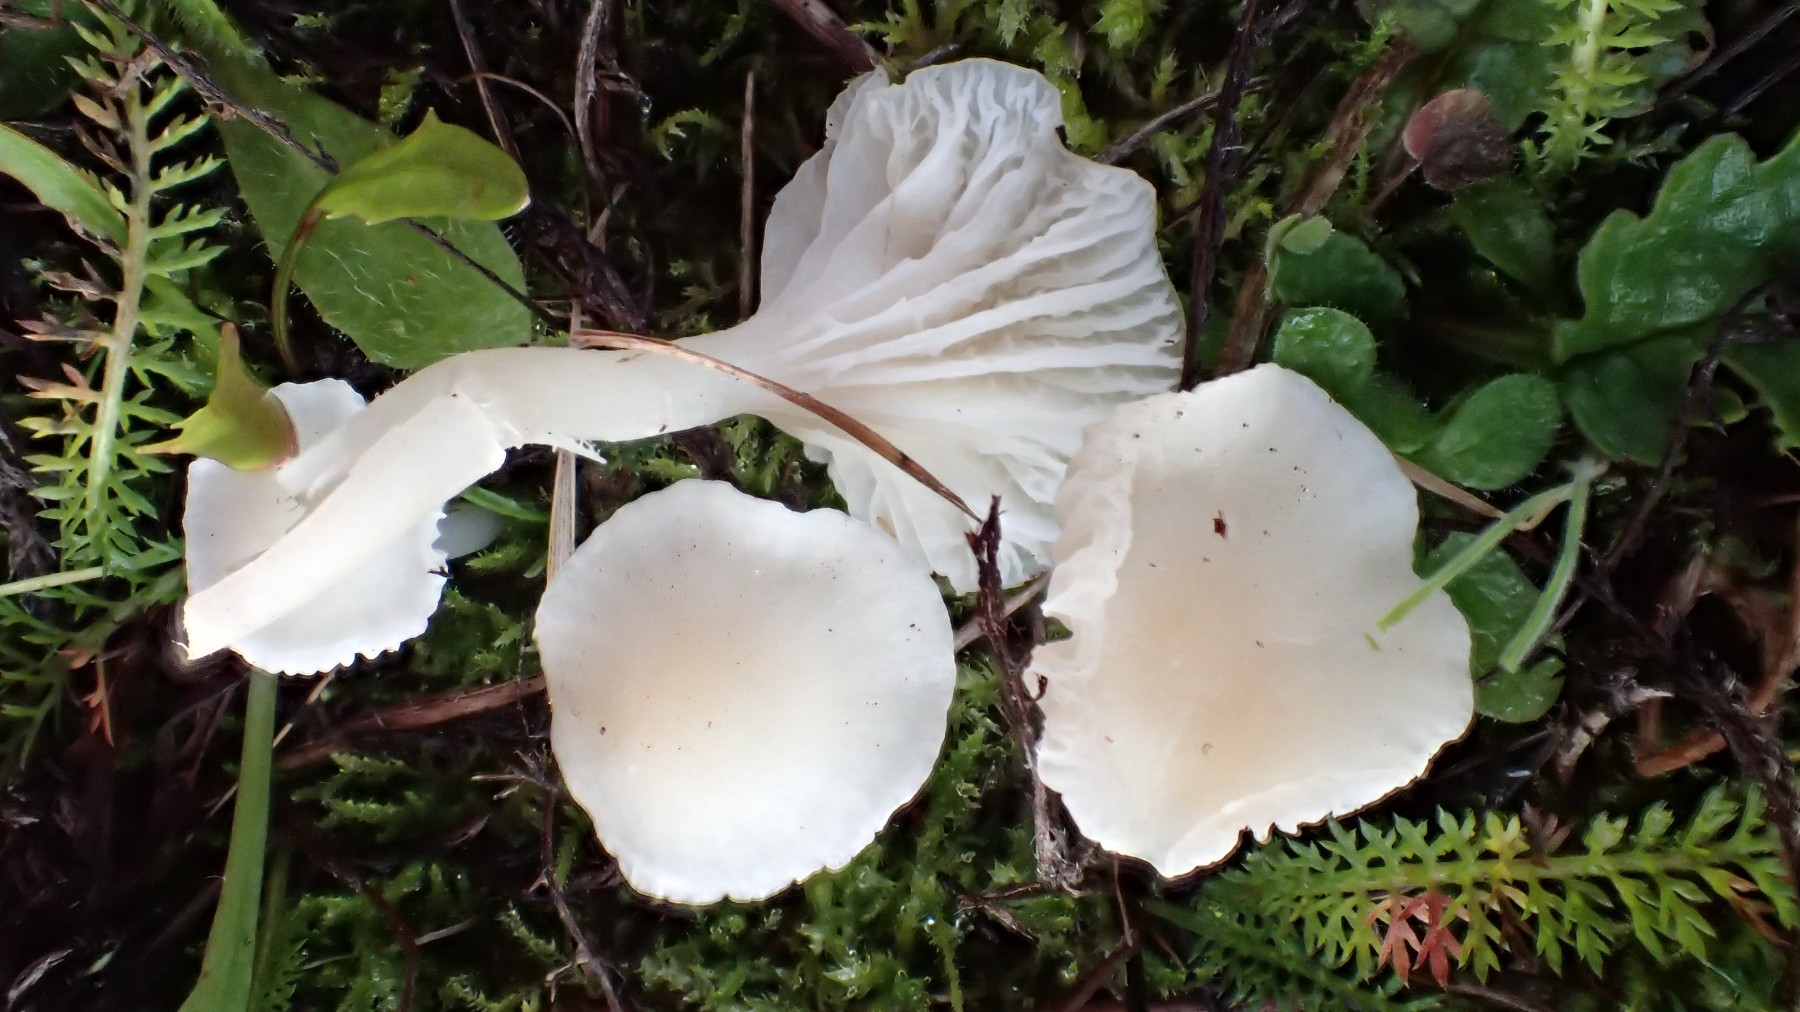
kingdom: Fungi
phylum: Basidiomycota
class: Agaricomycetes
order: Agaricales
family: Hygrophoraceae
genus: Cuphophyllus
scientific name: Cuphophyllus virgineus
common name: snehvid vokshat
